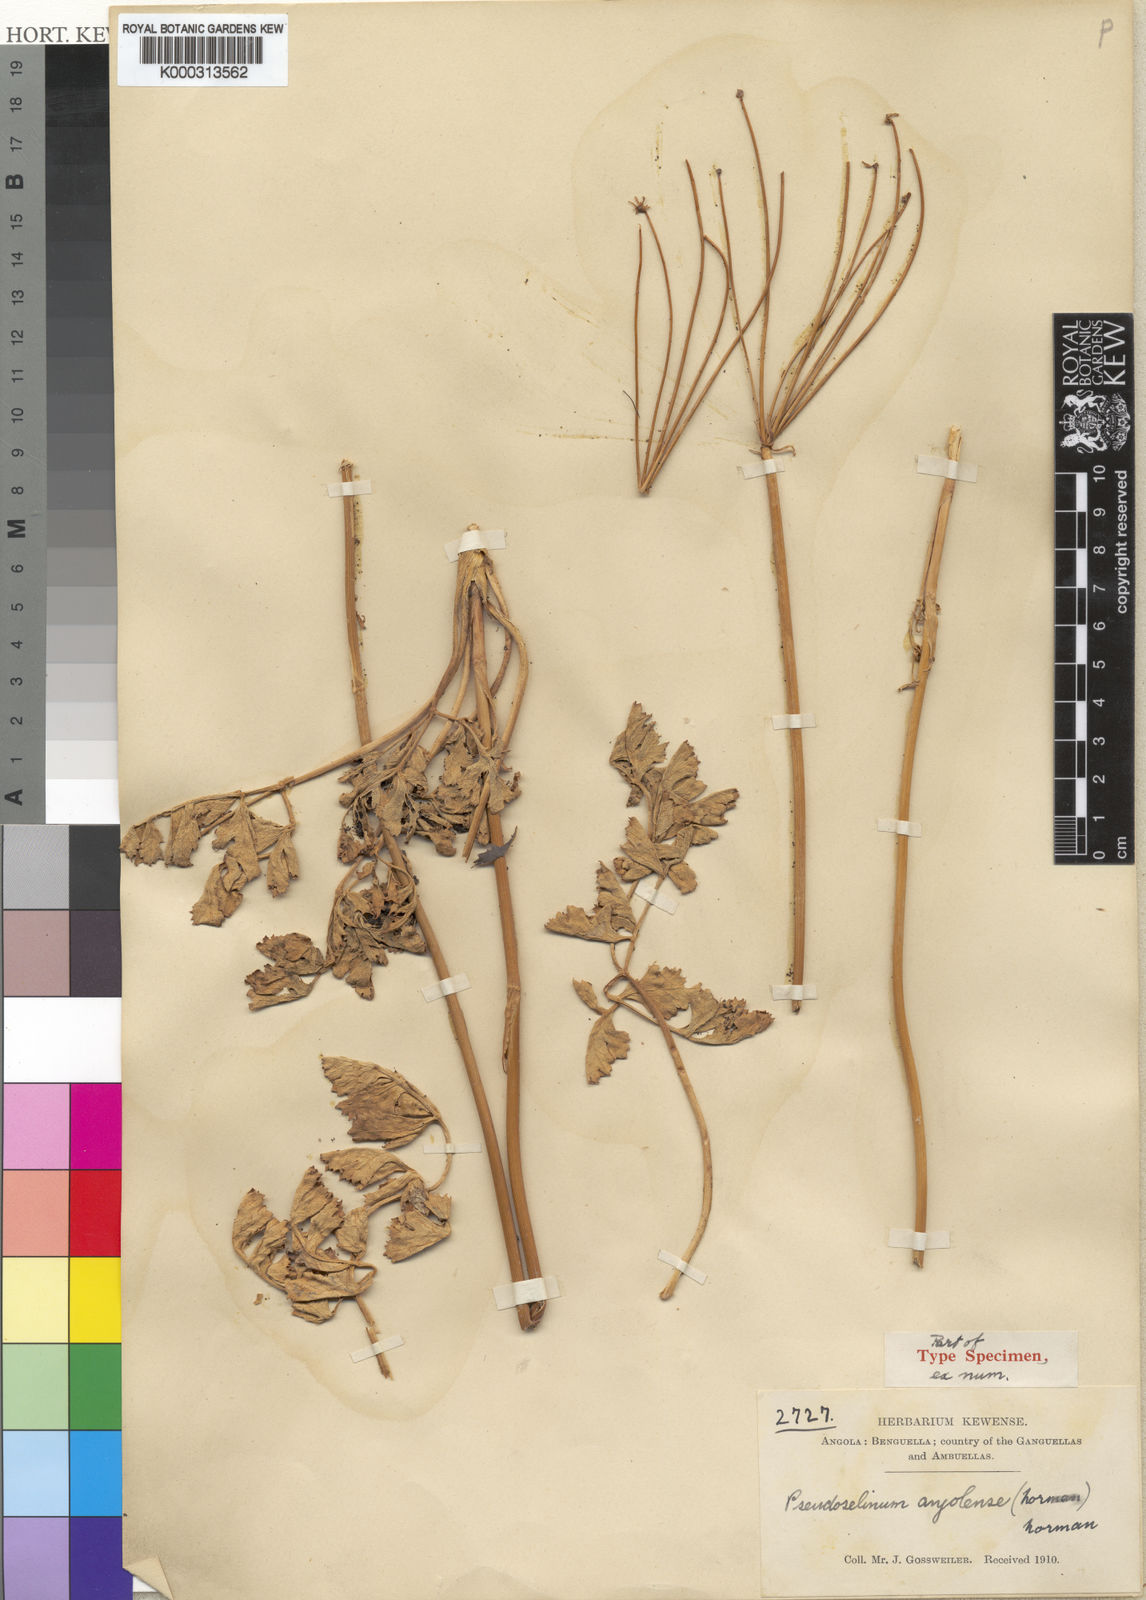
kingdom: Plantae
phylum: Tracheophyta
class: Magnoliopsida
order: Apiales
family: Apiaceae
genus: Pseudoselinum
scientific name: Pseudoselinum angolense
